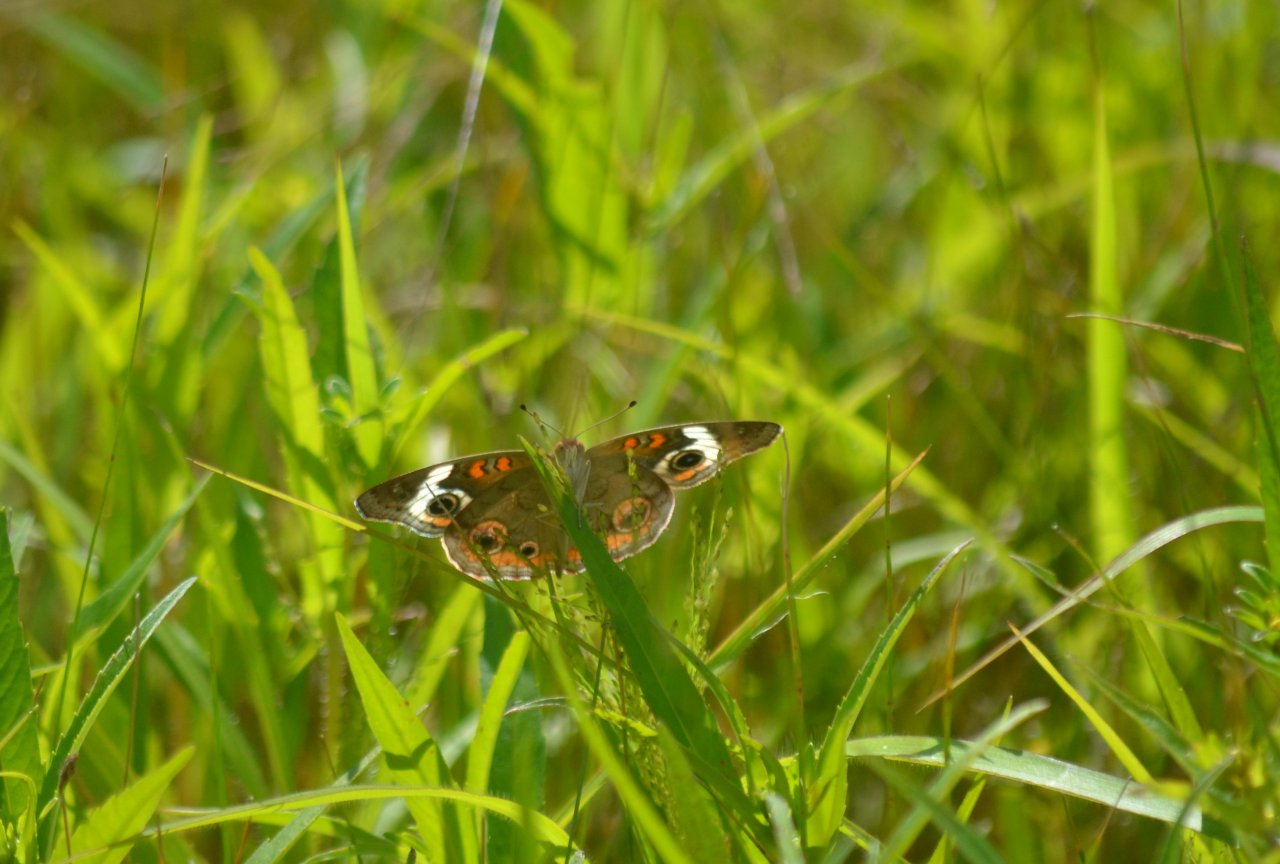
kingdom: Animalia
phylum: Arthropoda
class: Insecta
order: Lepidoptera
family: Nymphalidae
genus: Junonia
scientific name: Junonia coenia
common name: Common Buckeye
